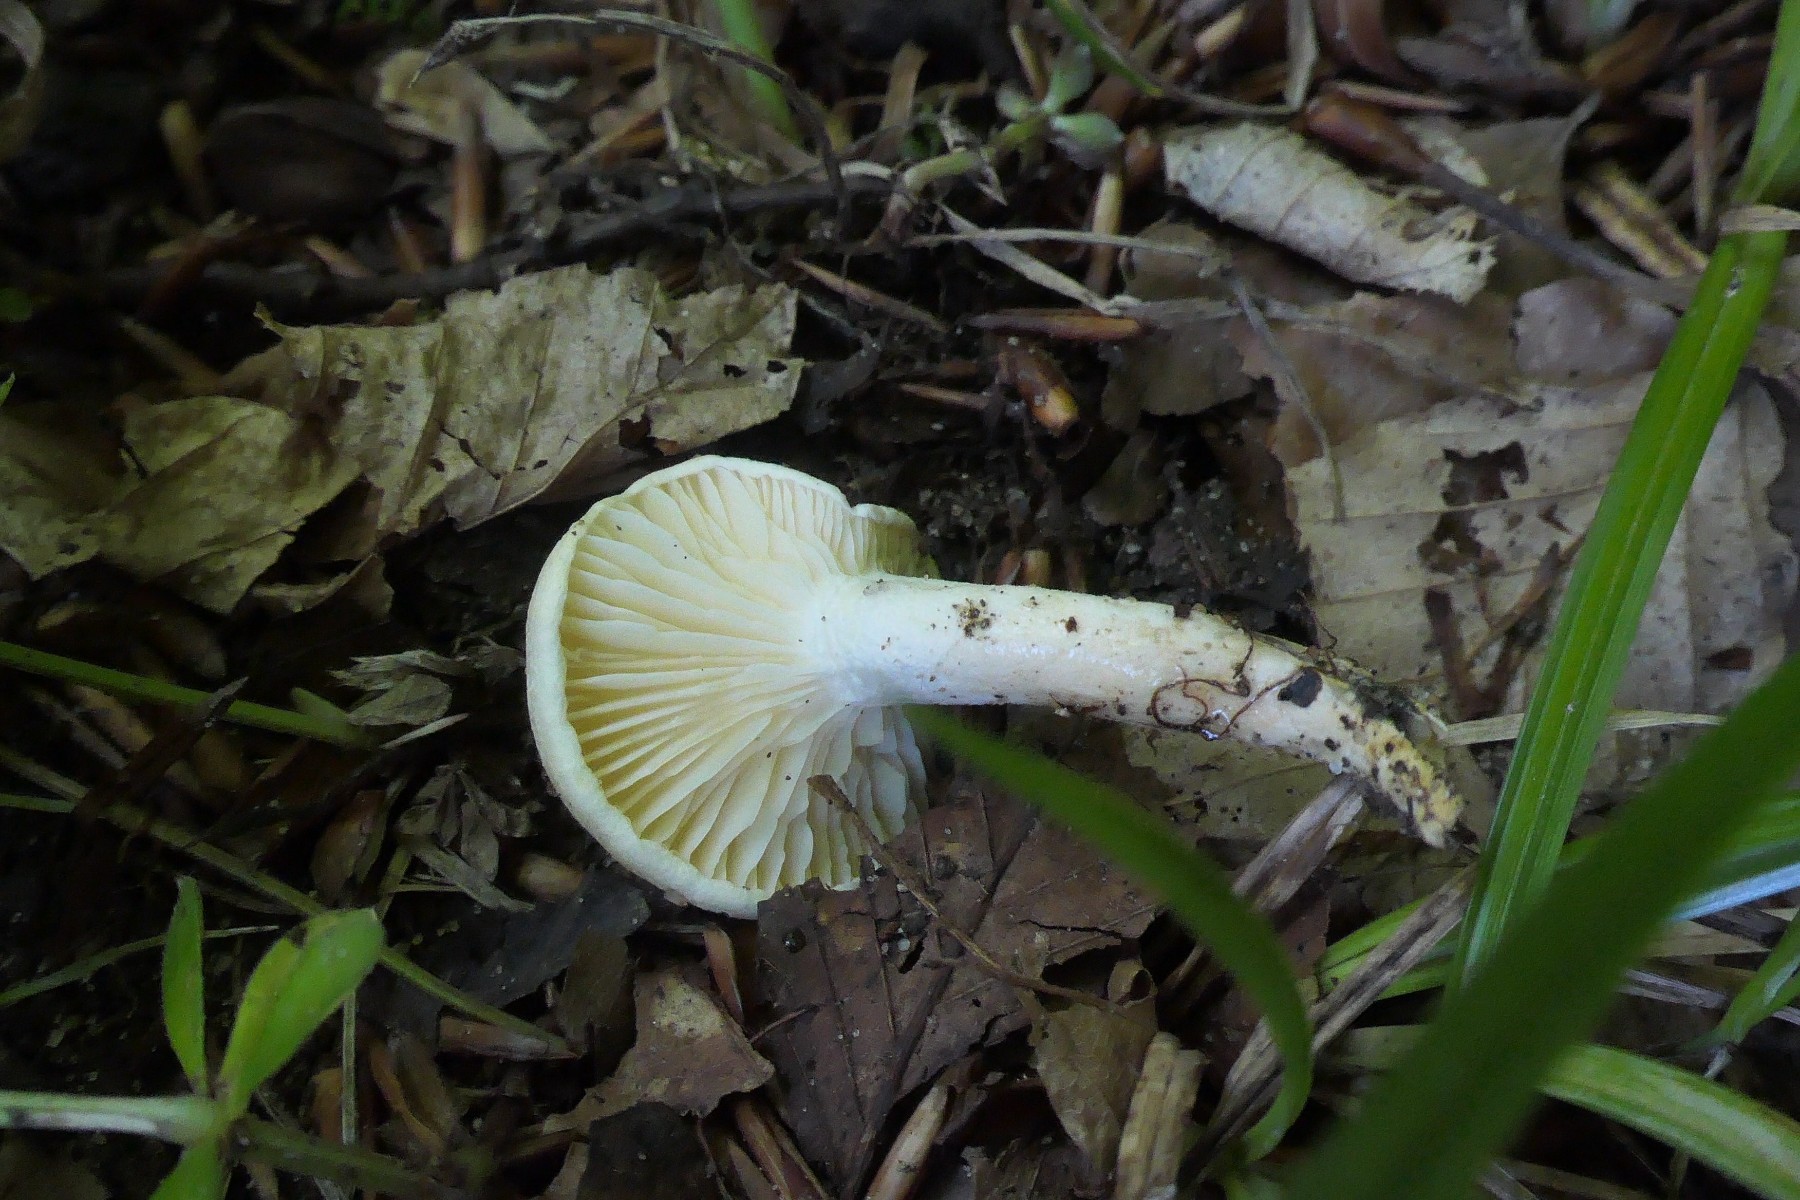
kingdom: Fungi
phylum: Basidiomycota
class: Agaricomycetes
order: Agaricales
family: Hygrophoraceae
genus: Hygrophorus
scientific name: Hygrophorus eburneus
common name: elfenbens-sneglehat
